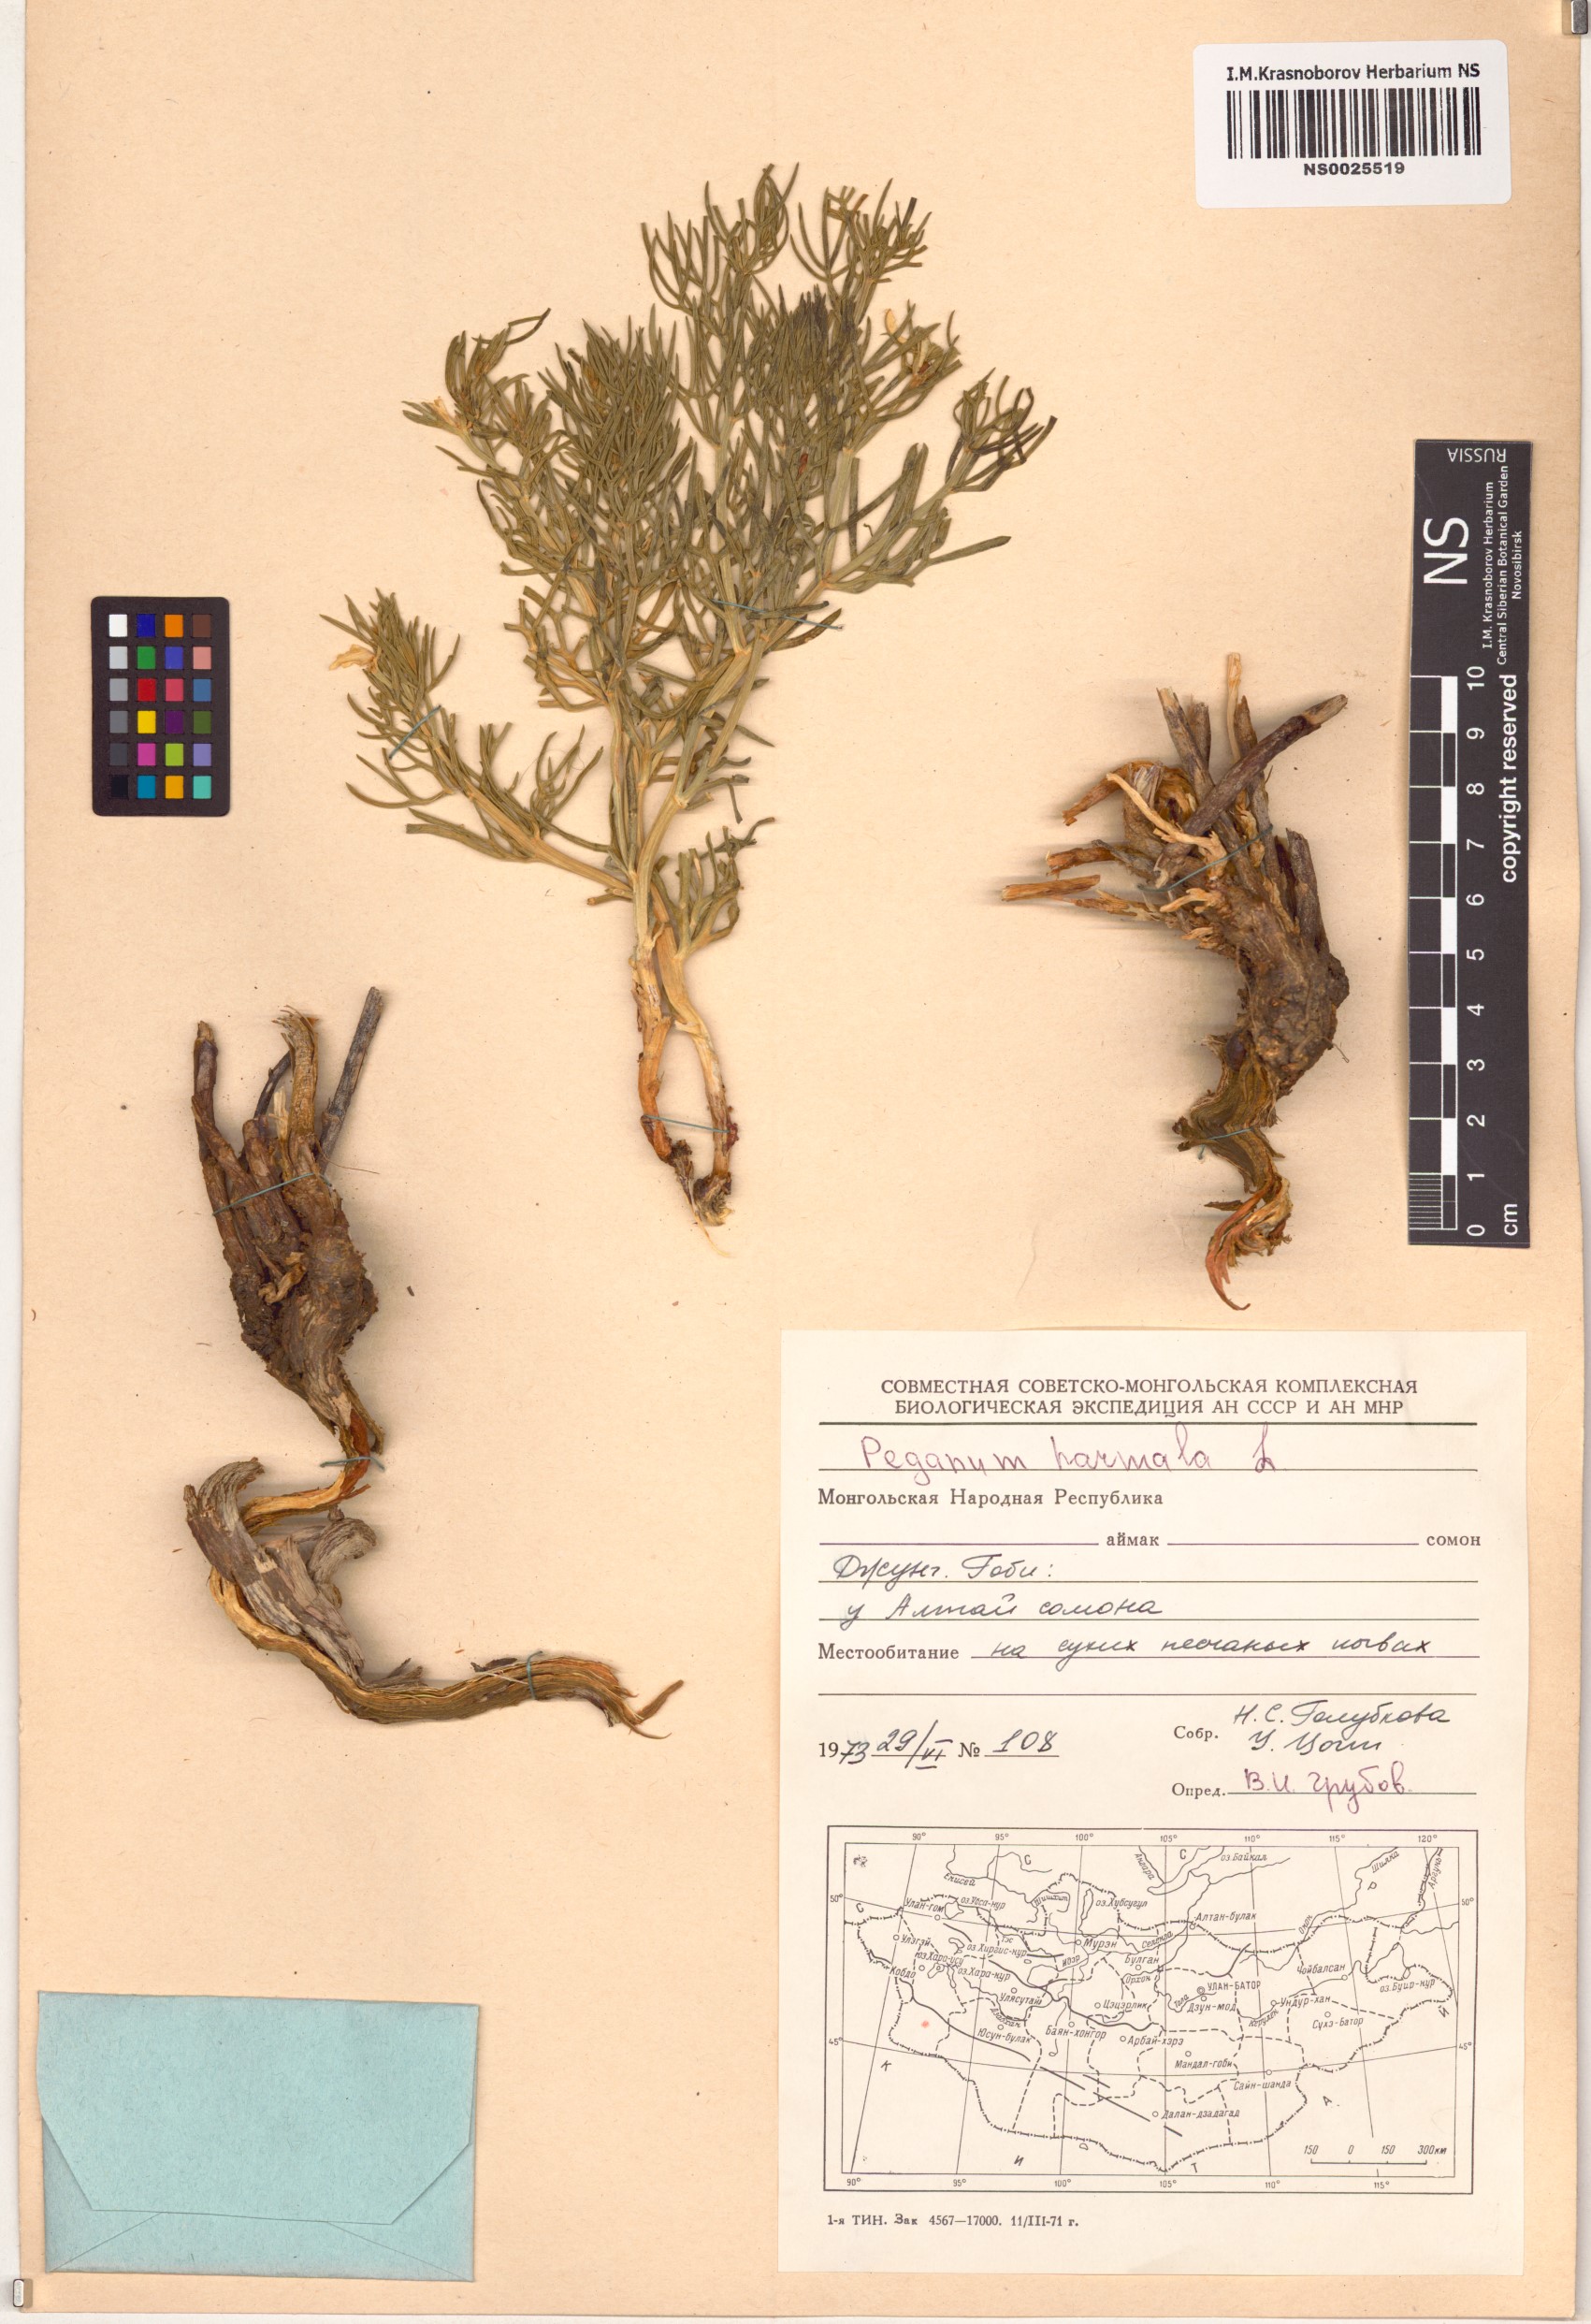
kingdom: Plantae
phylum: Tracheophyta
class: Magnoliopsida
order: Sapindales
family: Tetradiclidaceae
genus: Peganum
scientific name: Peganum harmala
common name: Harmal peganum
